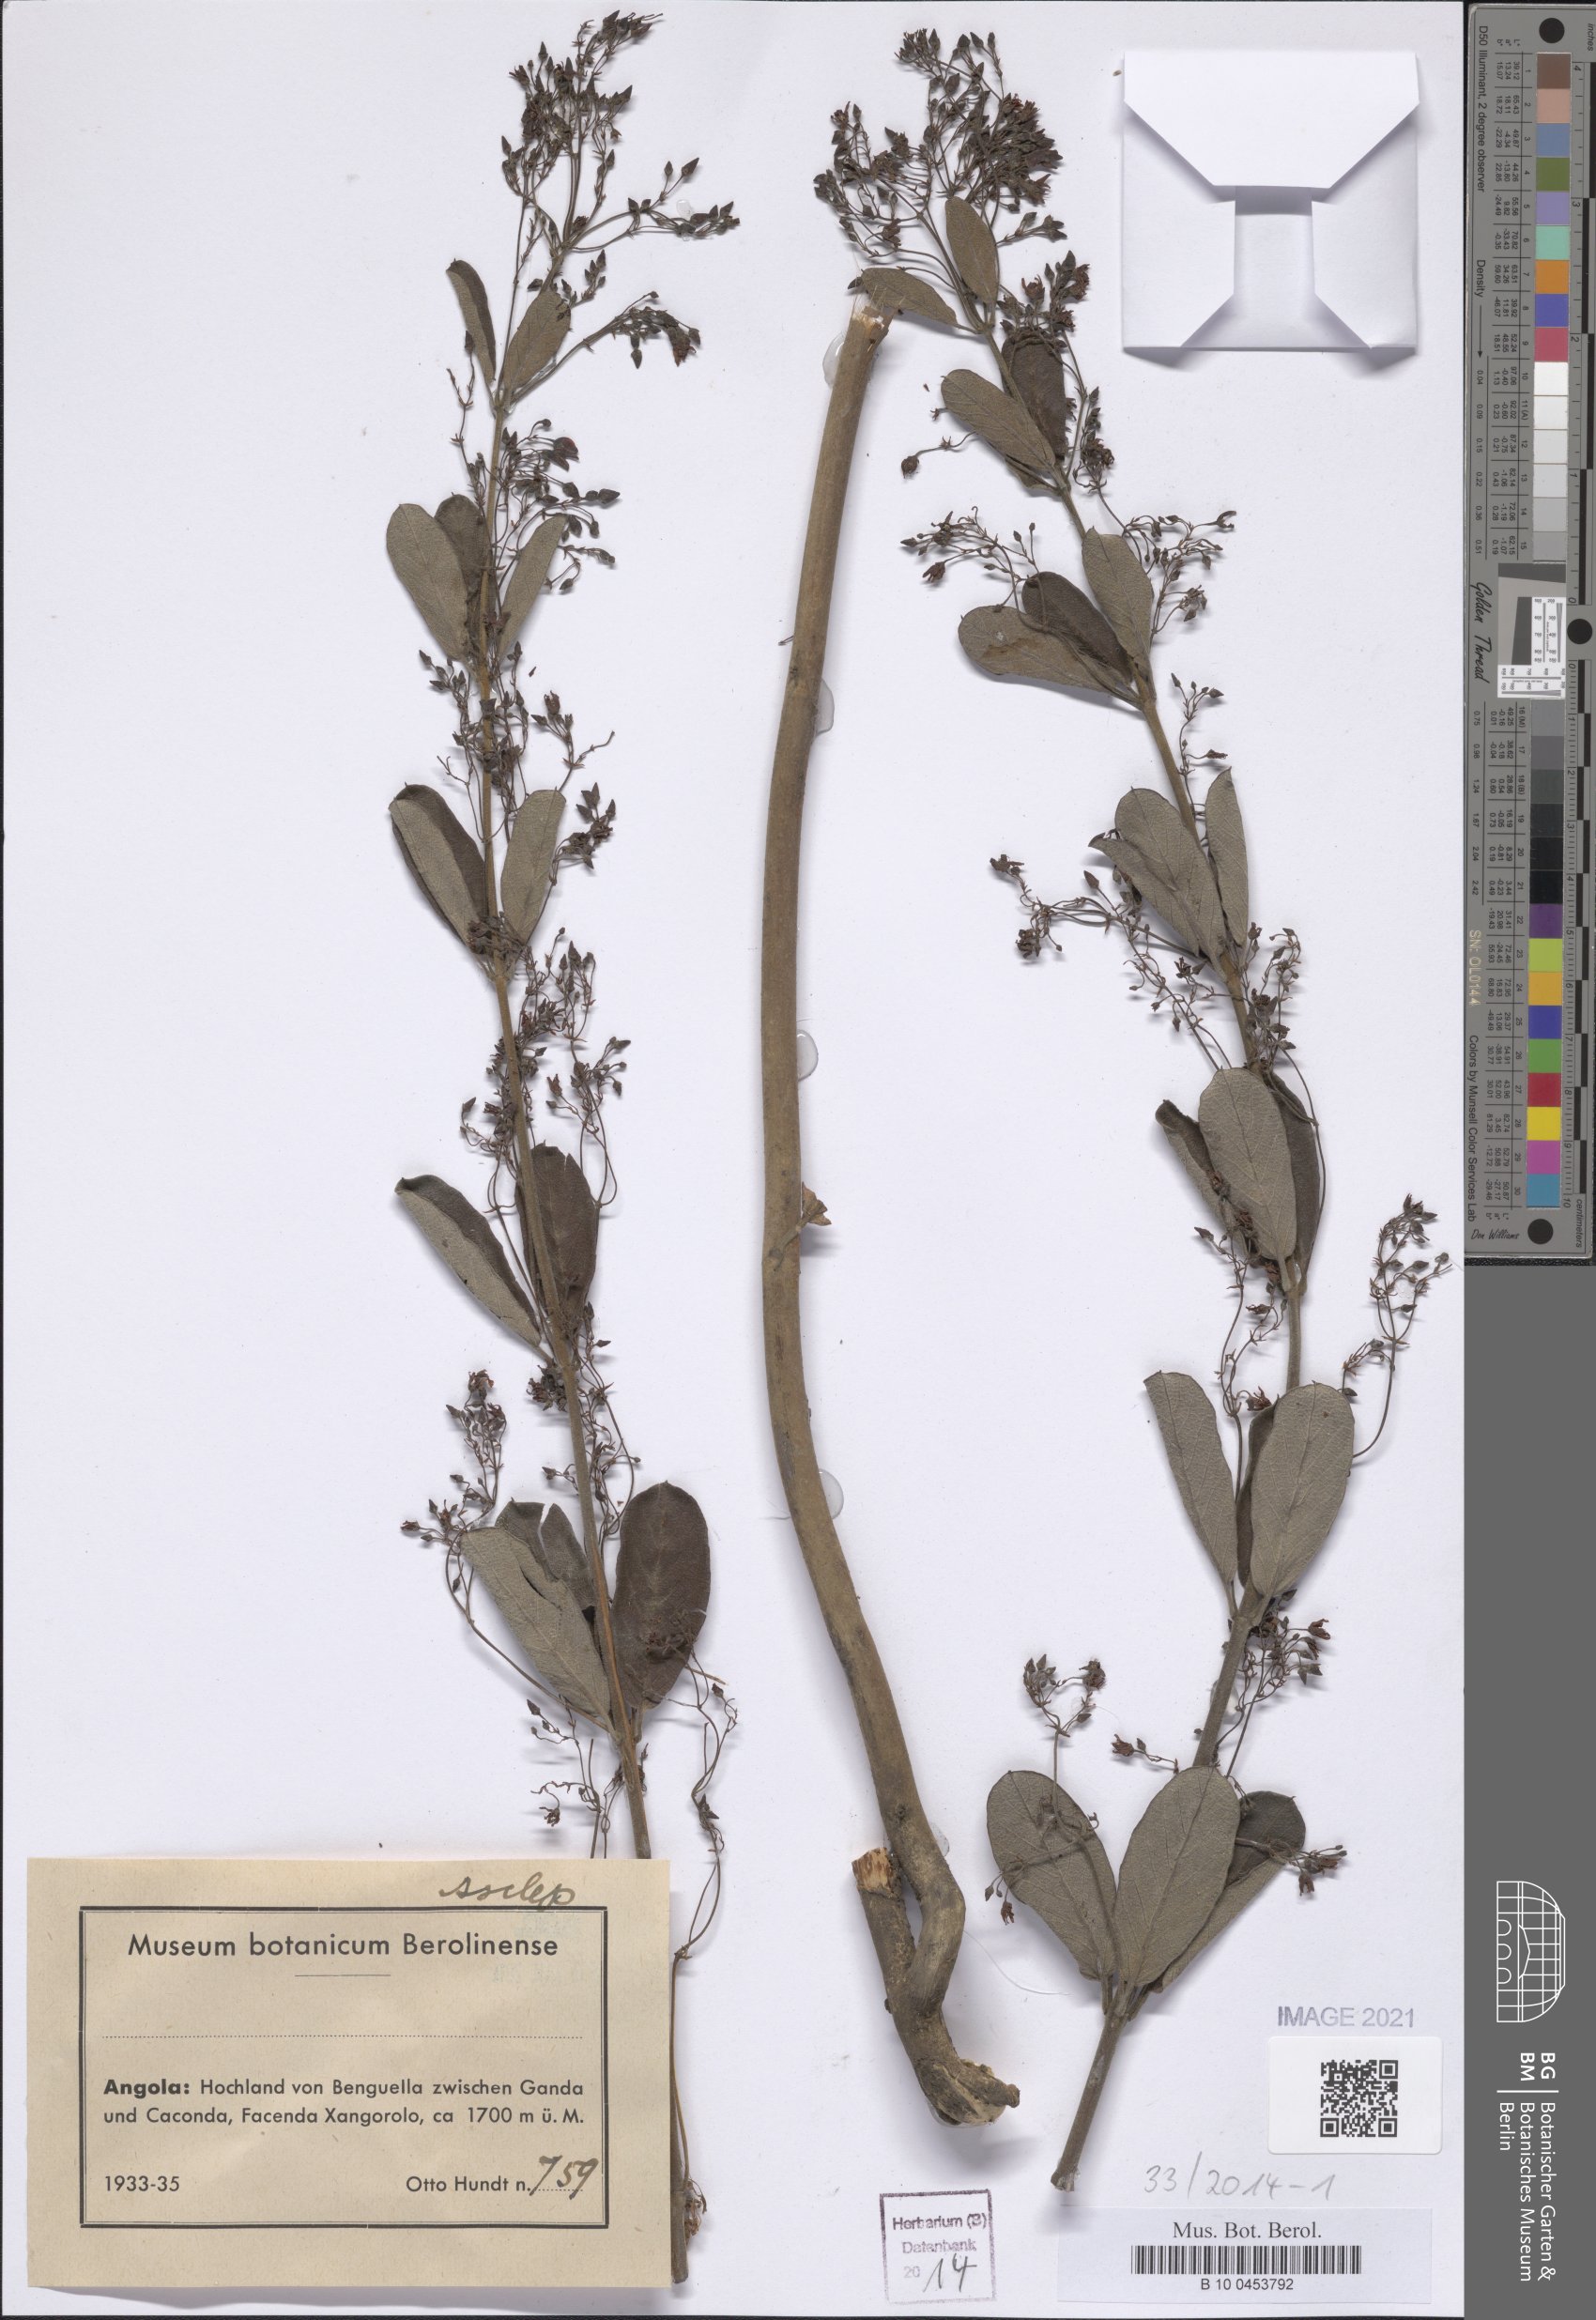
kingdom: Plantae
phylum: Tracheophyta
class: Magnoliopsida
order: Gentianales
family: Asclepiadaceae
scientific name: Asclepiadaceae
